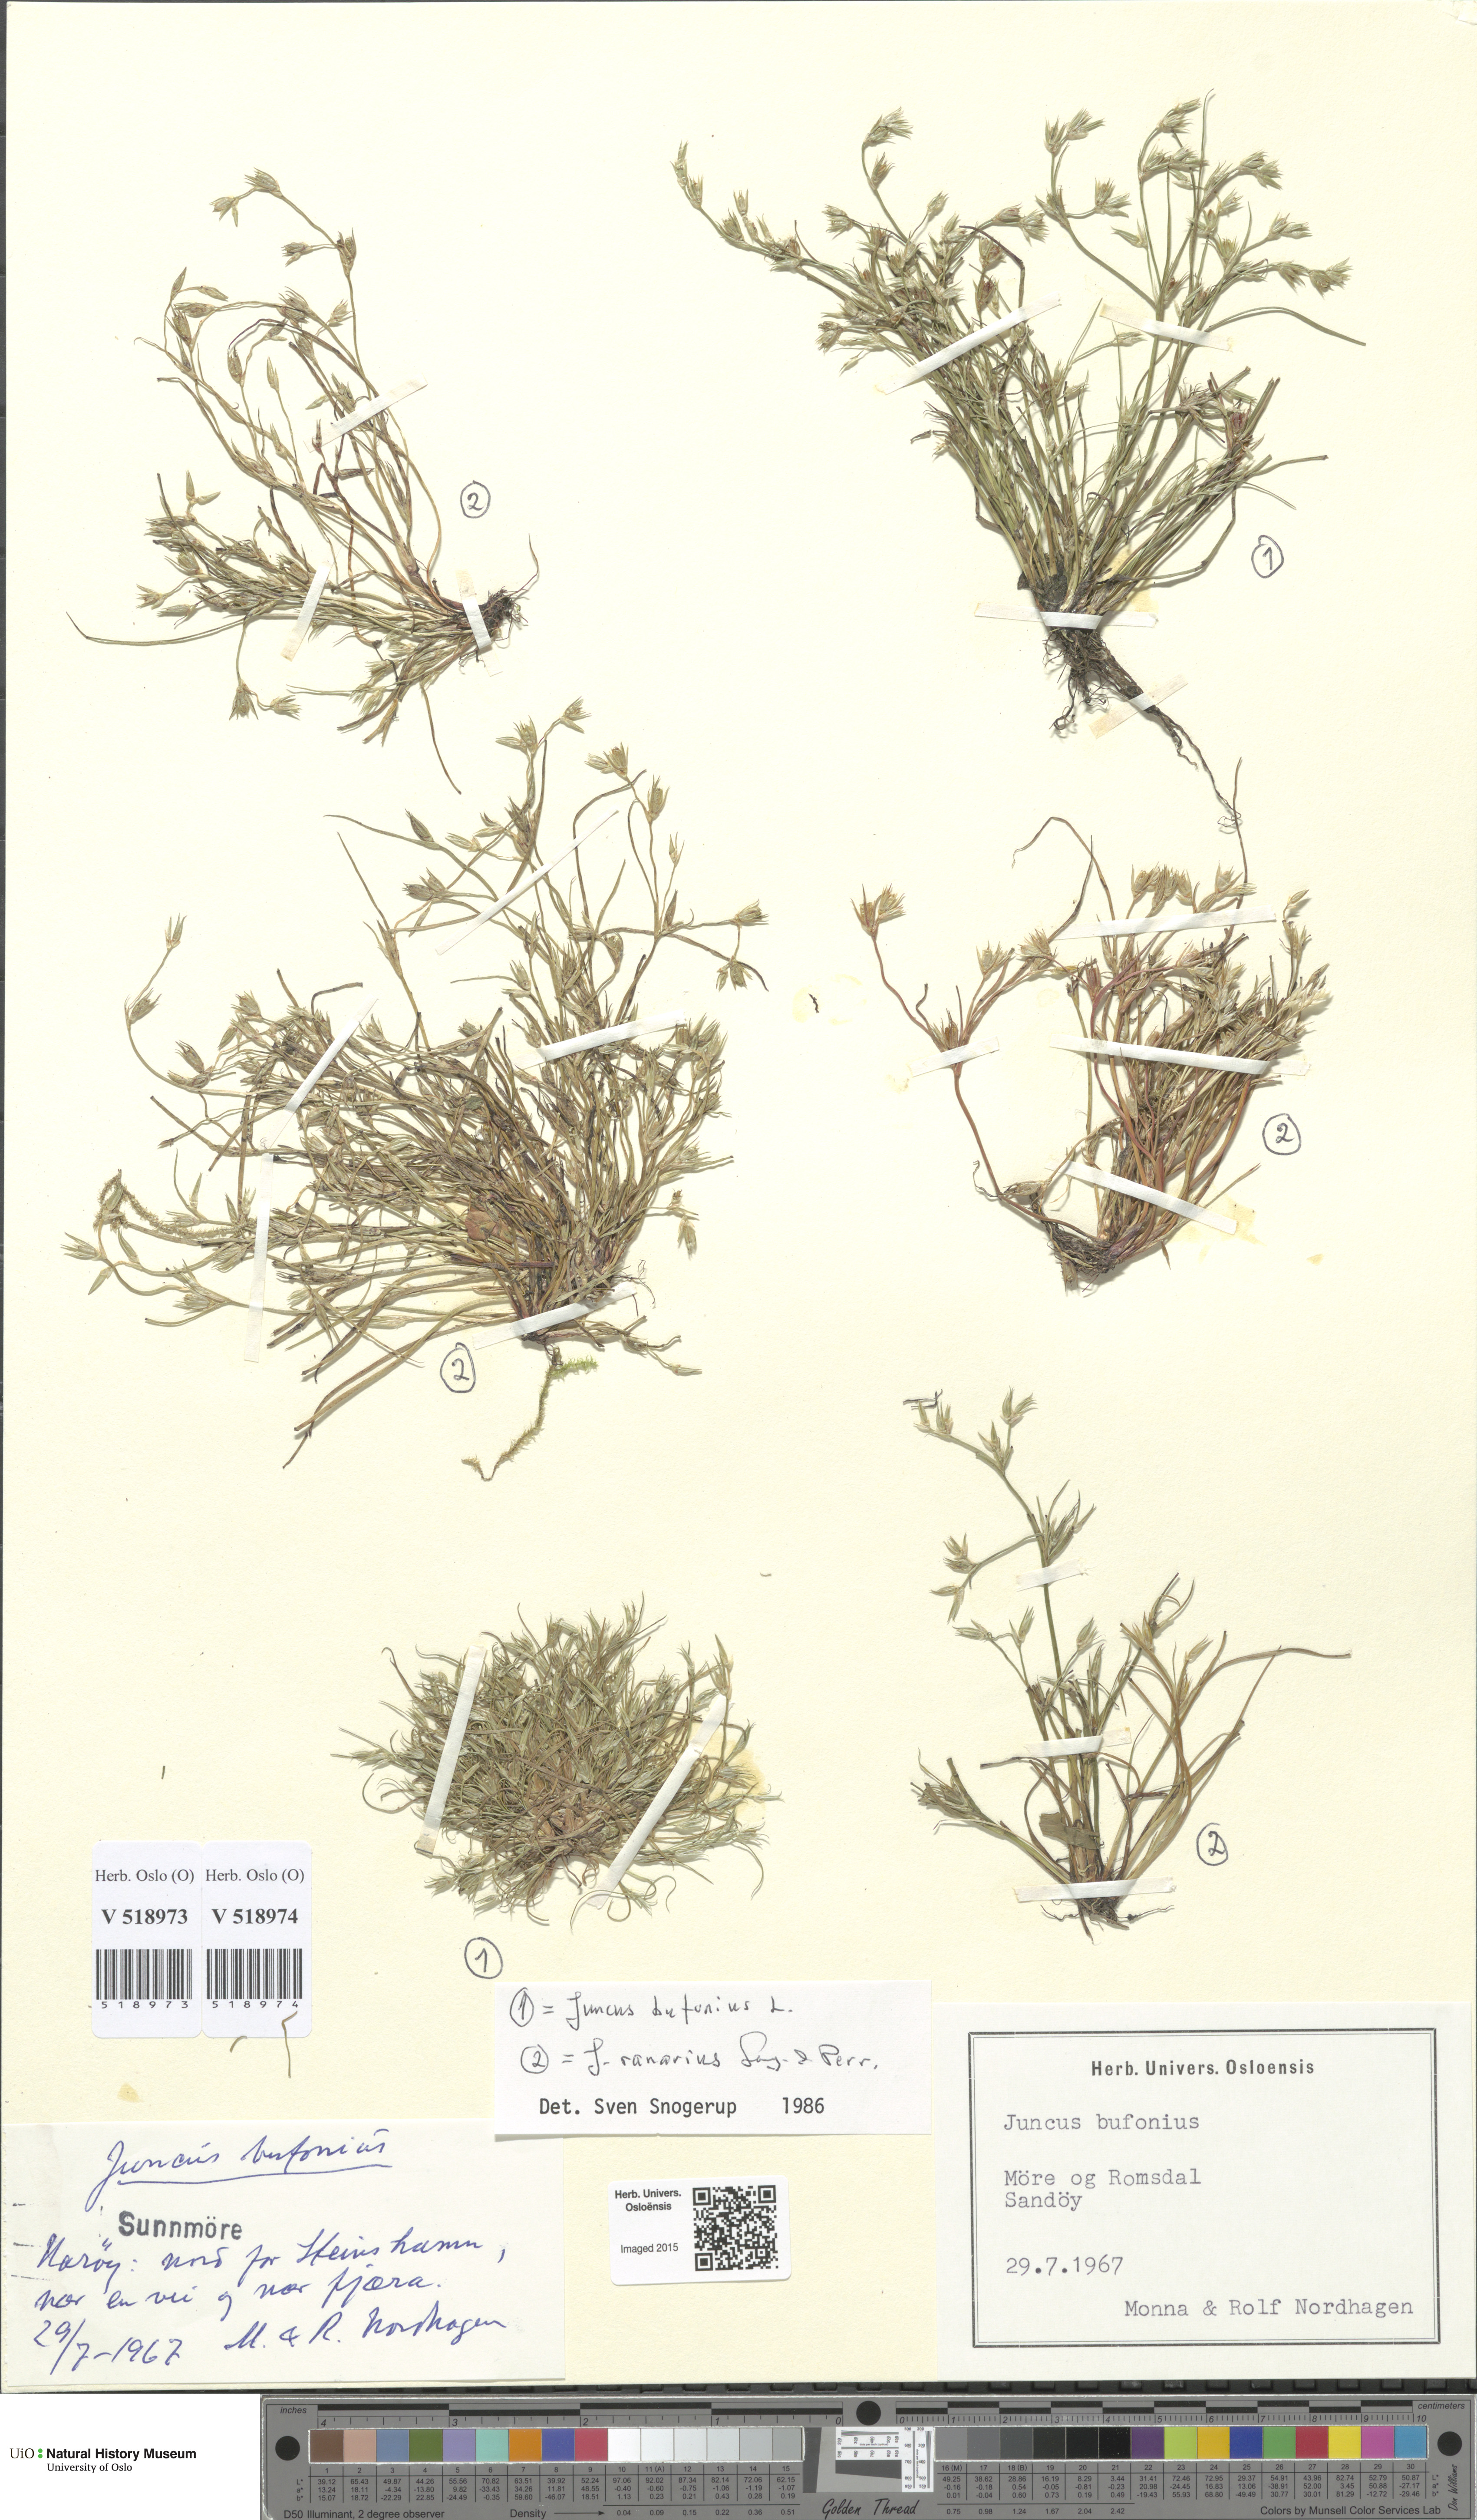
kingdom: Plantae
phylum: Tracheophyta
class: Liliopsida
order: Poales
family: Juncaceae
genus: Juncus
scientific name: Juncus bufonius
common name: Toad rush
